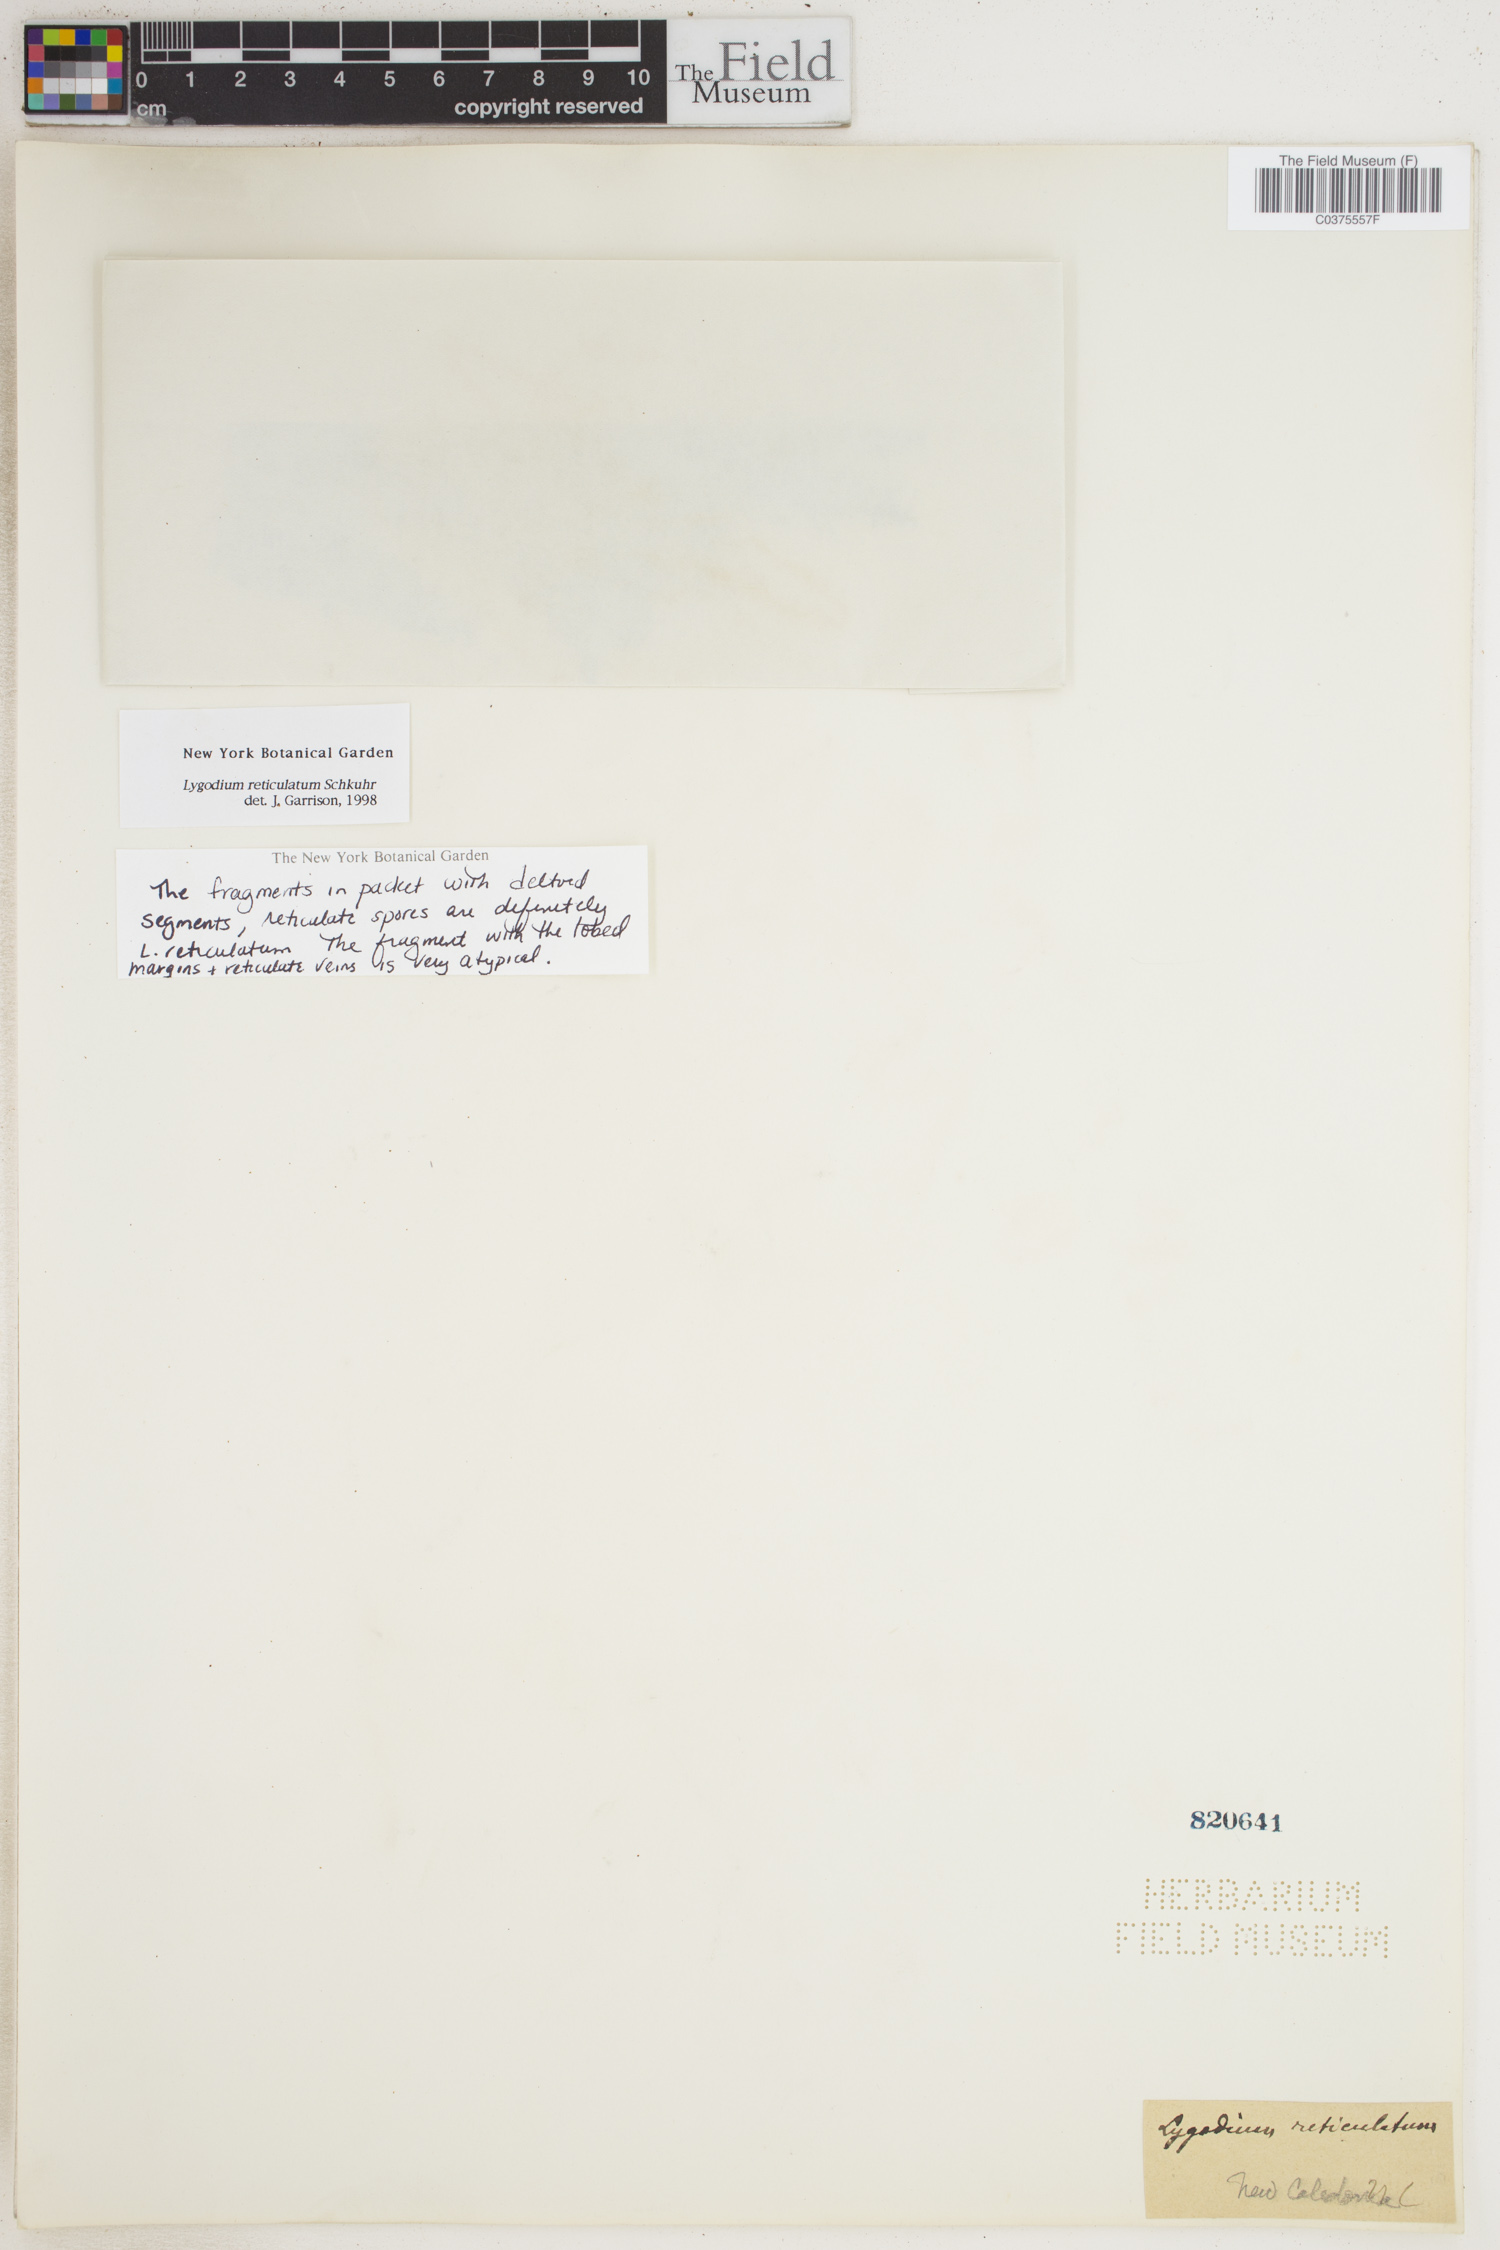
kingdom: Plantae
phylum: Tracheophyta
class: Polypodiopsida
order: Schizaeales
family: Lygodiaceae
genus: Lygodium
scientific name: Lygodium reticulatum
